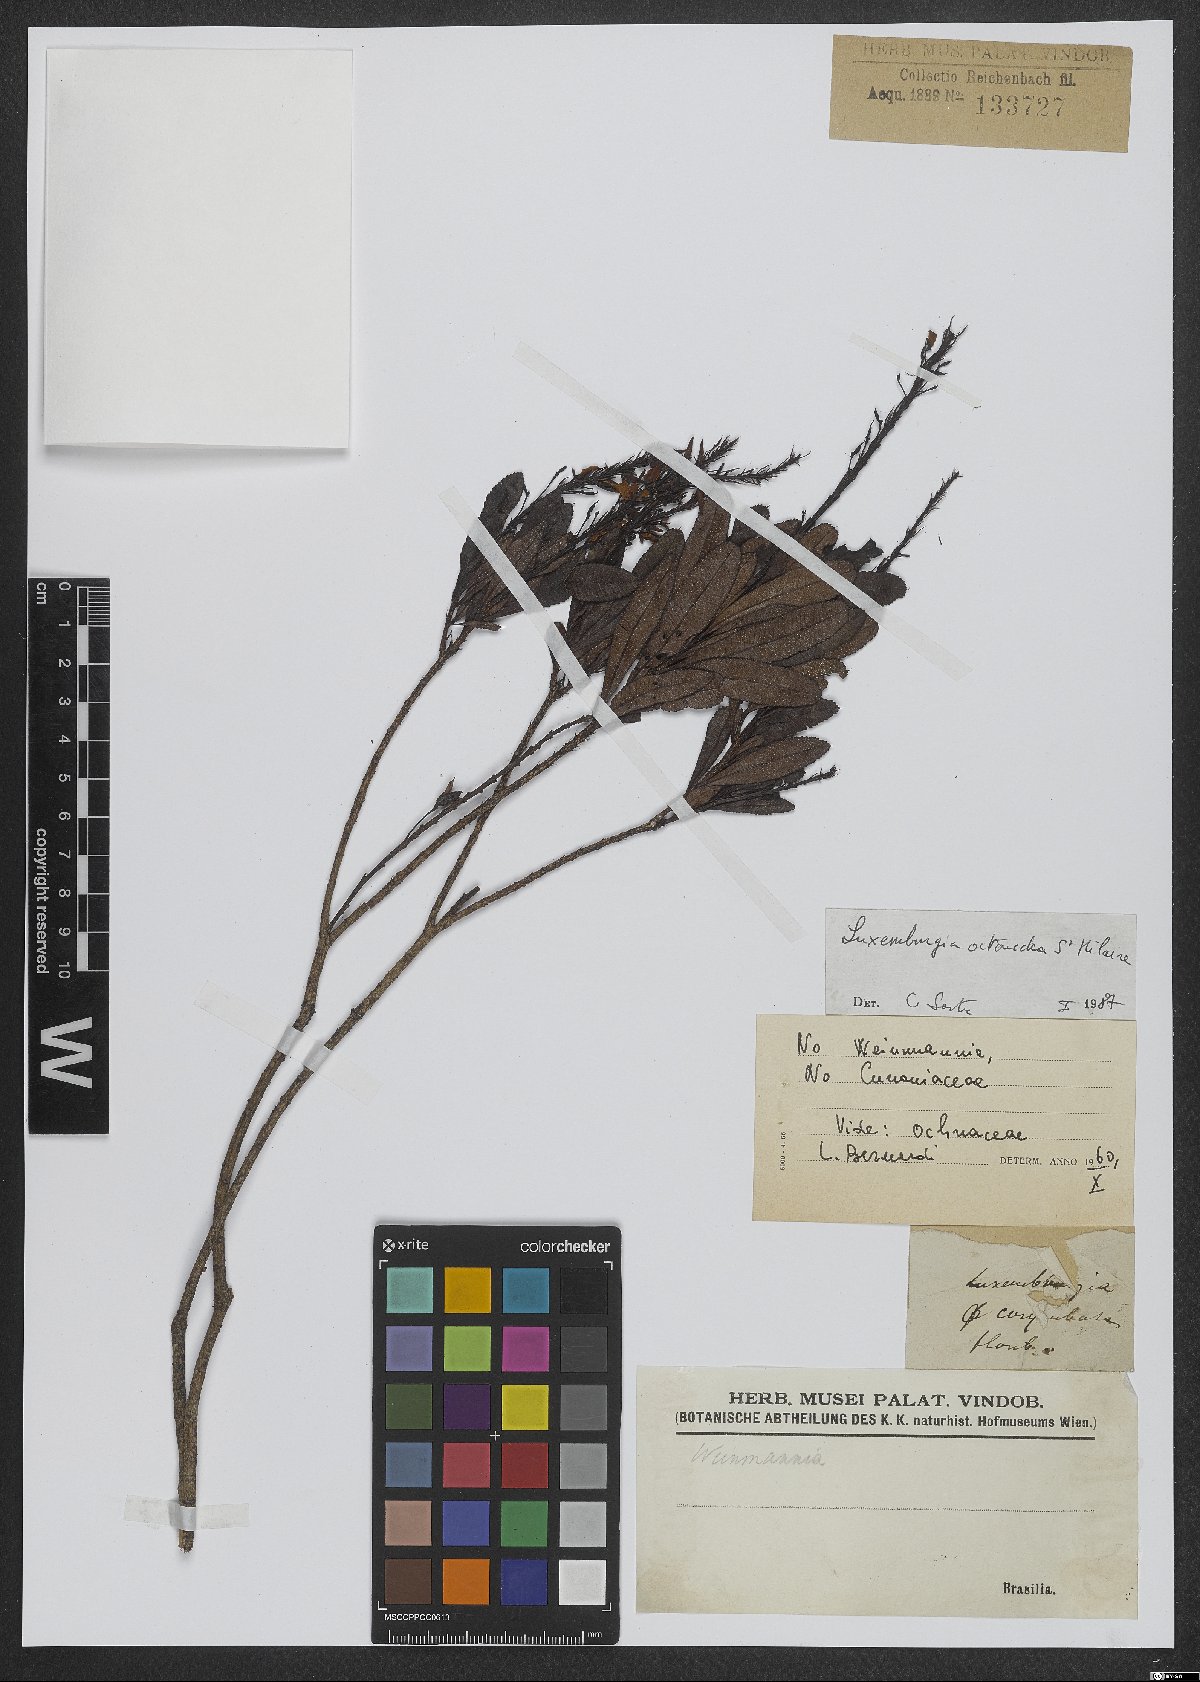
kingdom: Plantae
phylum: Tracheophyta
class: Magnoliopsida
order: Malpighiales
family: Ochnaceae
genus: Luxemburgia
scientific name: Luxemburgia octandra
